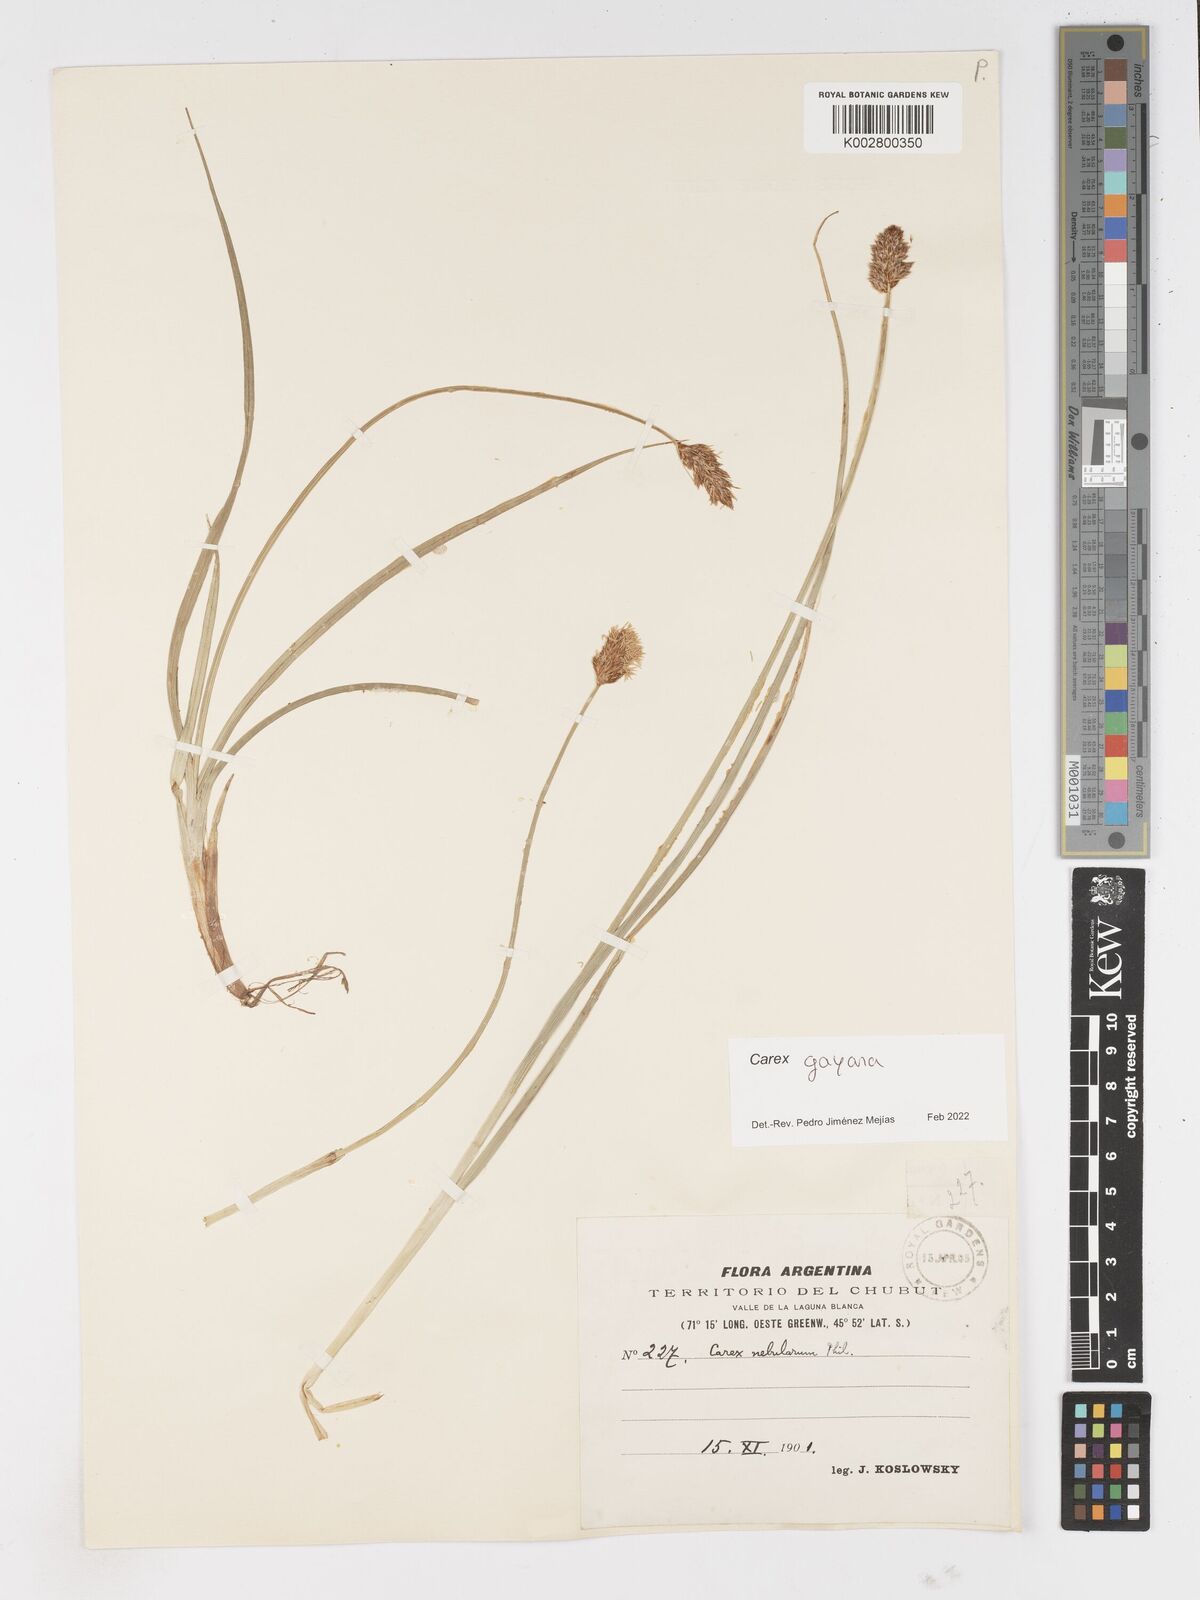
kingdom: Plantae
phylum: Tracheophyta
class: Liliopsida
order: Poales
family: Cyperaceae
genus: Carex
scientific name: Carex gayana
